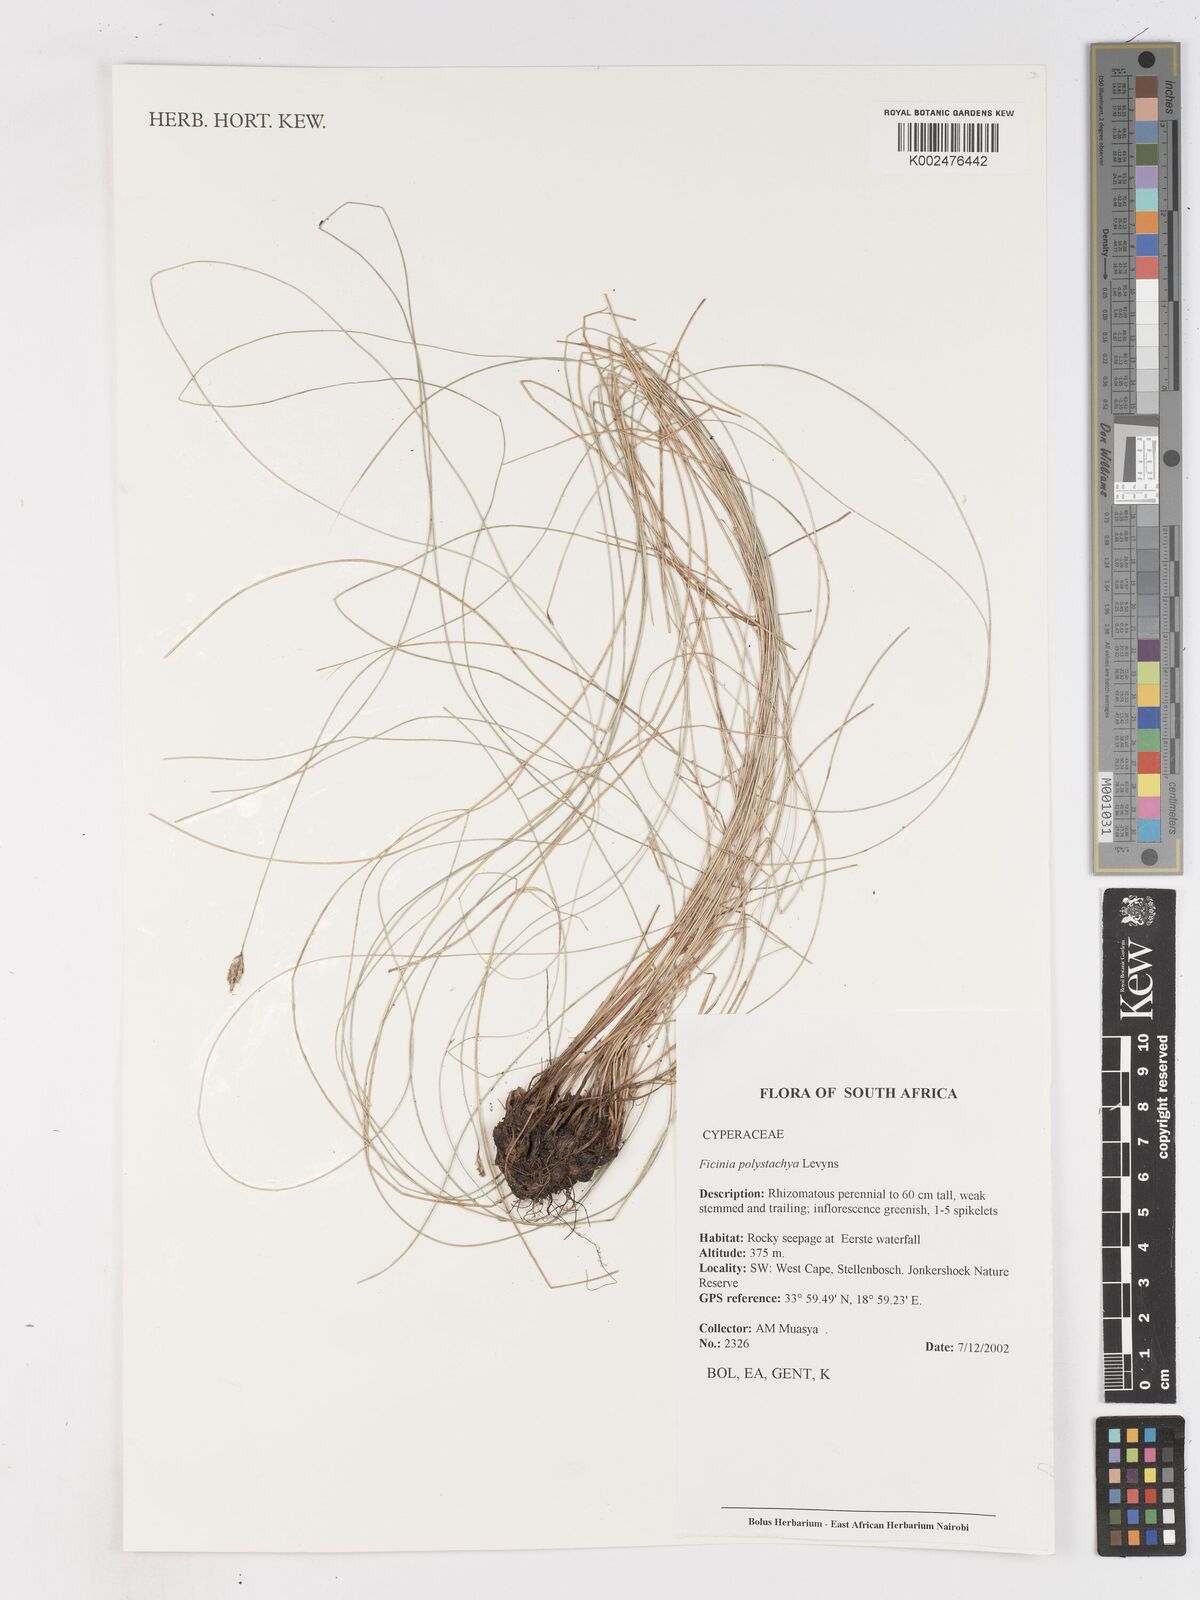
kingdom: Plantae
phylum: Tracheophyta
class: Liliopsida
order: Poales
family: Cyperaceae
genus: Ficinia
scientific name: Ficinia polystachya
